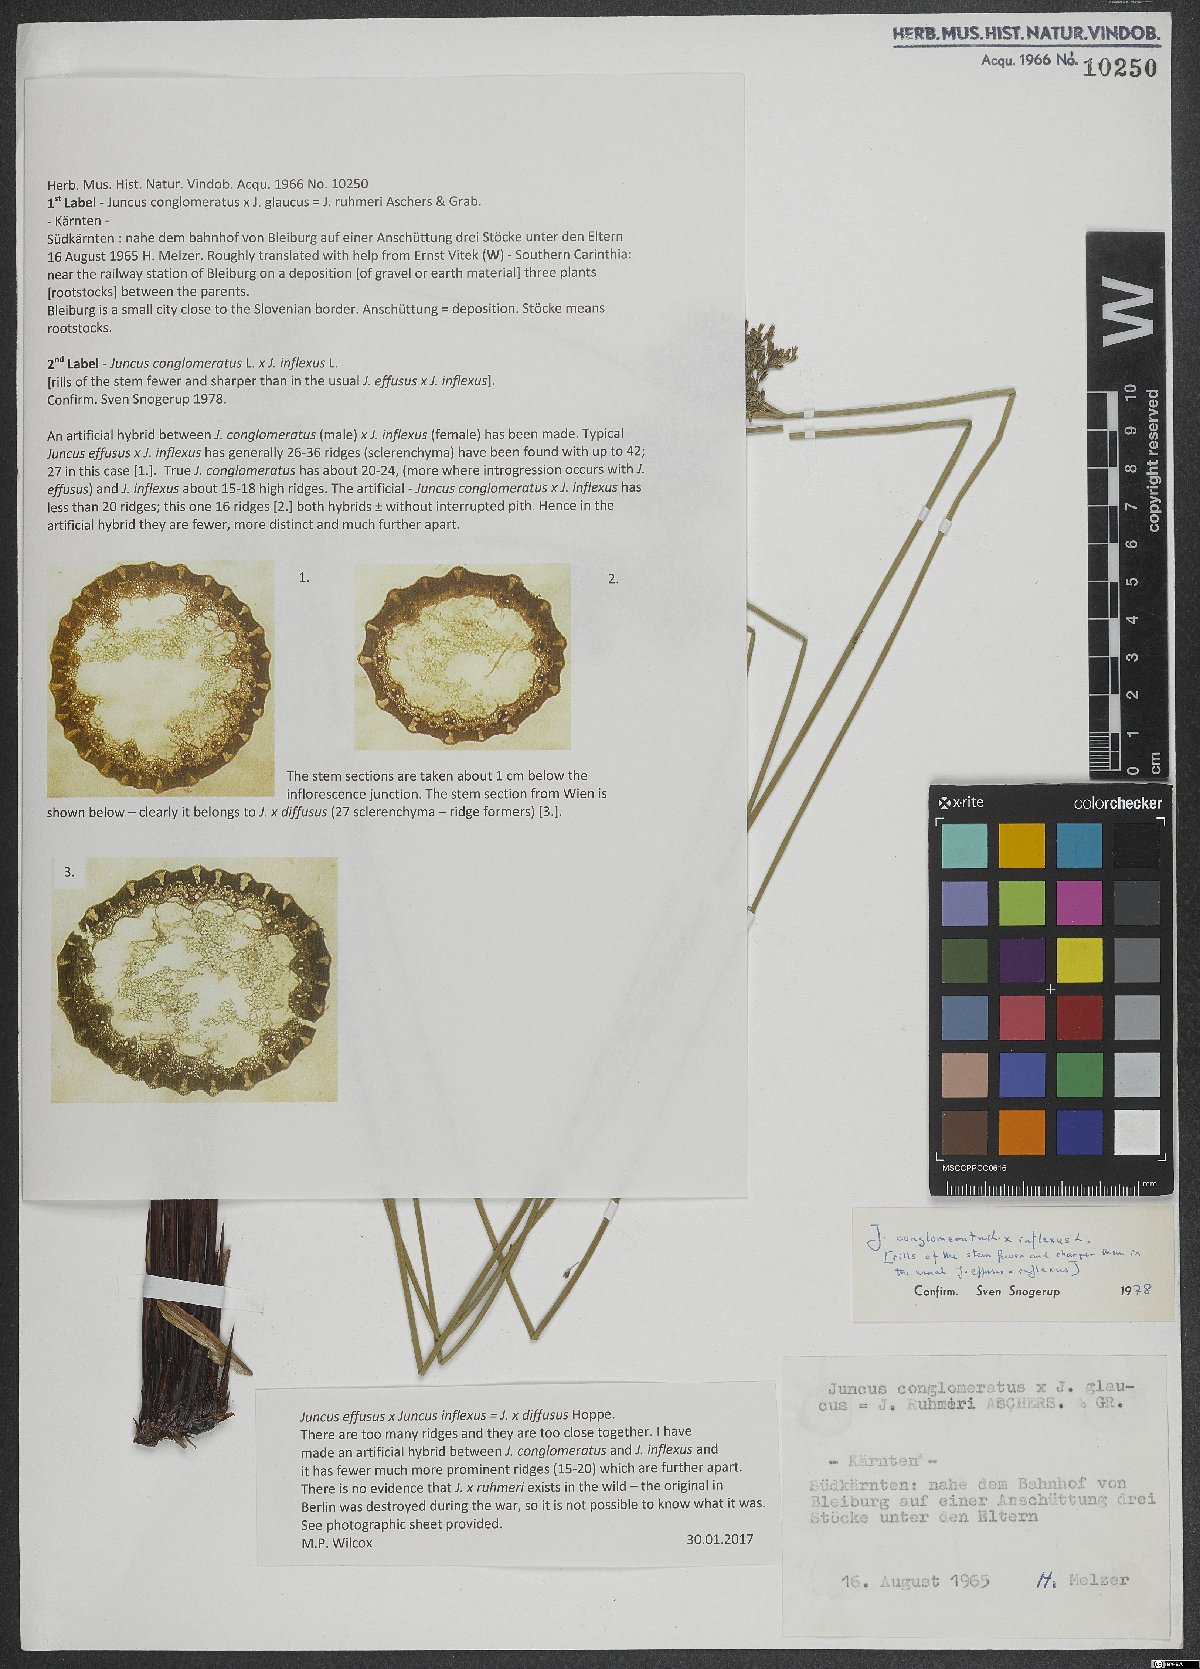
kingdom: Plantae
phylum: Tracheophyta
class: Liliopsida
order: Poales
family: Juncaceae
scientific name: Juncaceae
